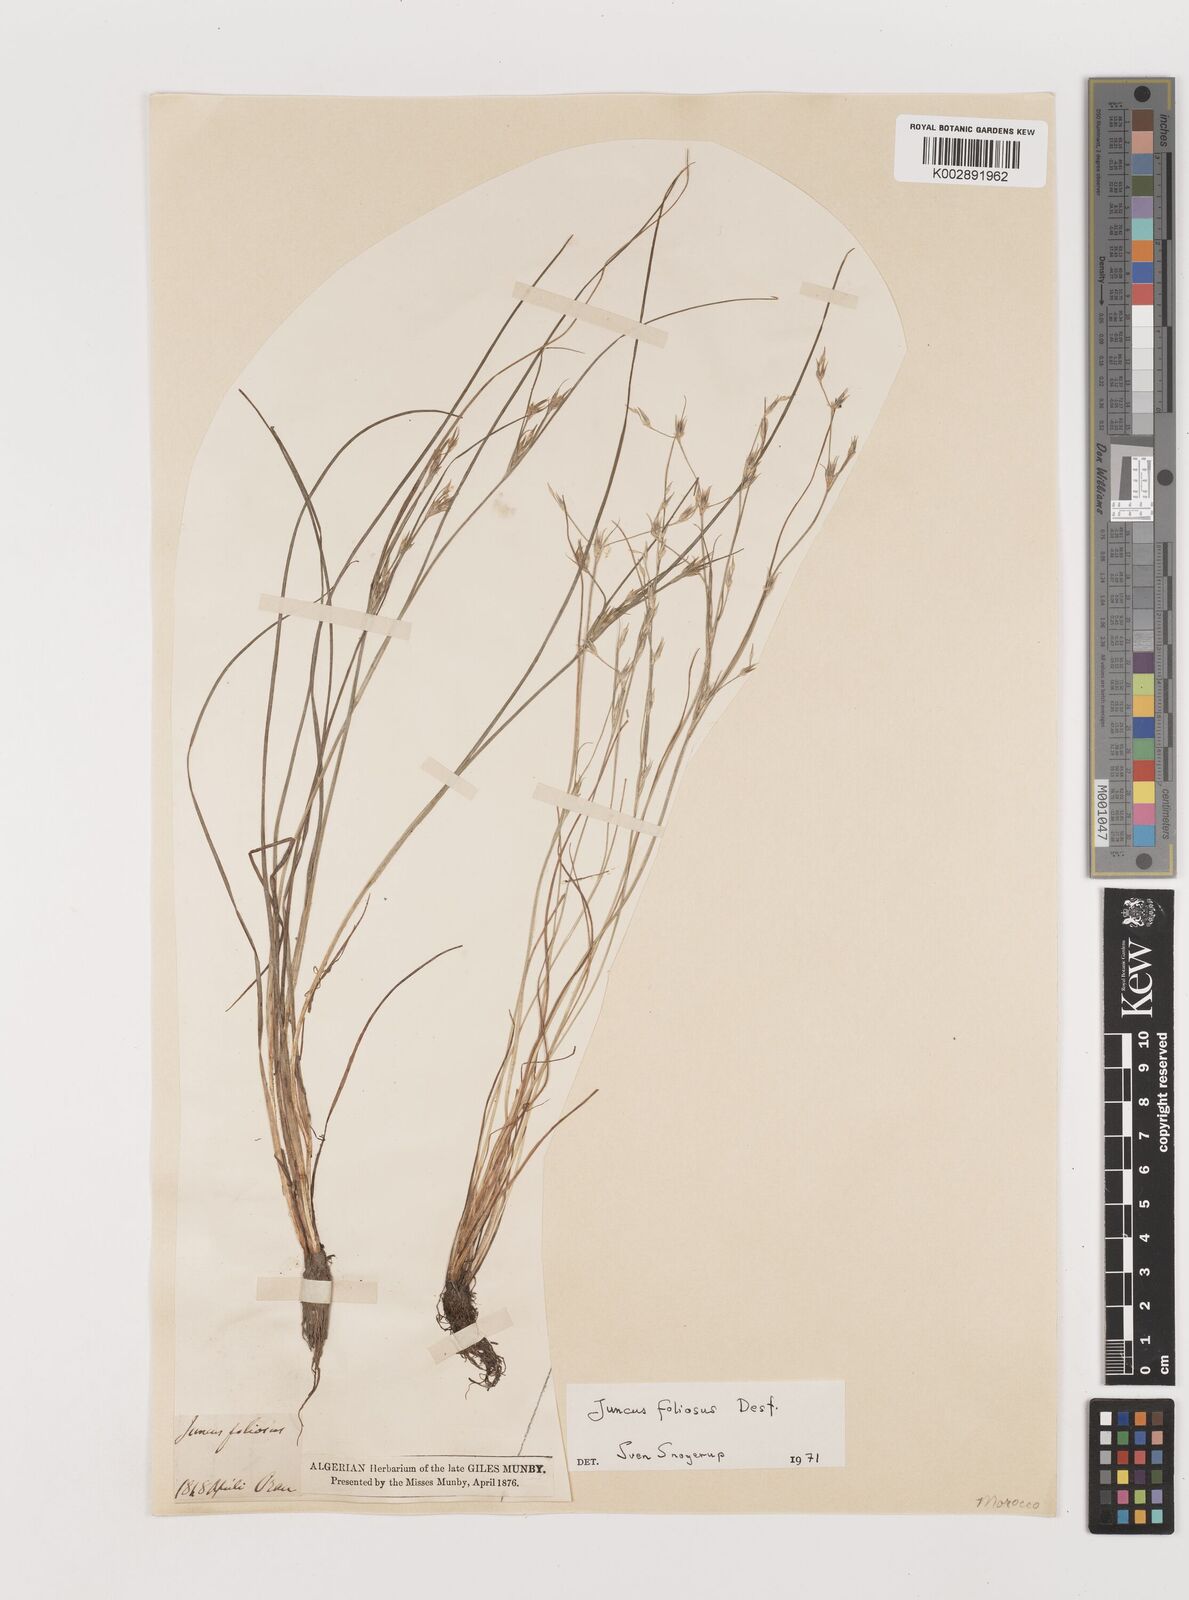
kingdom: Plantae
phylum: Tracheophyta
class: Liliopsida
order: Poales
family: Juncaceae
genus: Juncus
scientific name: Juncus acutiflorus
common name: Sharp-flowered rush
